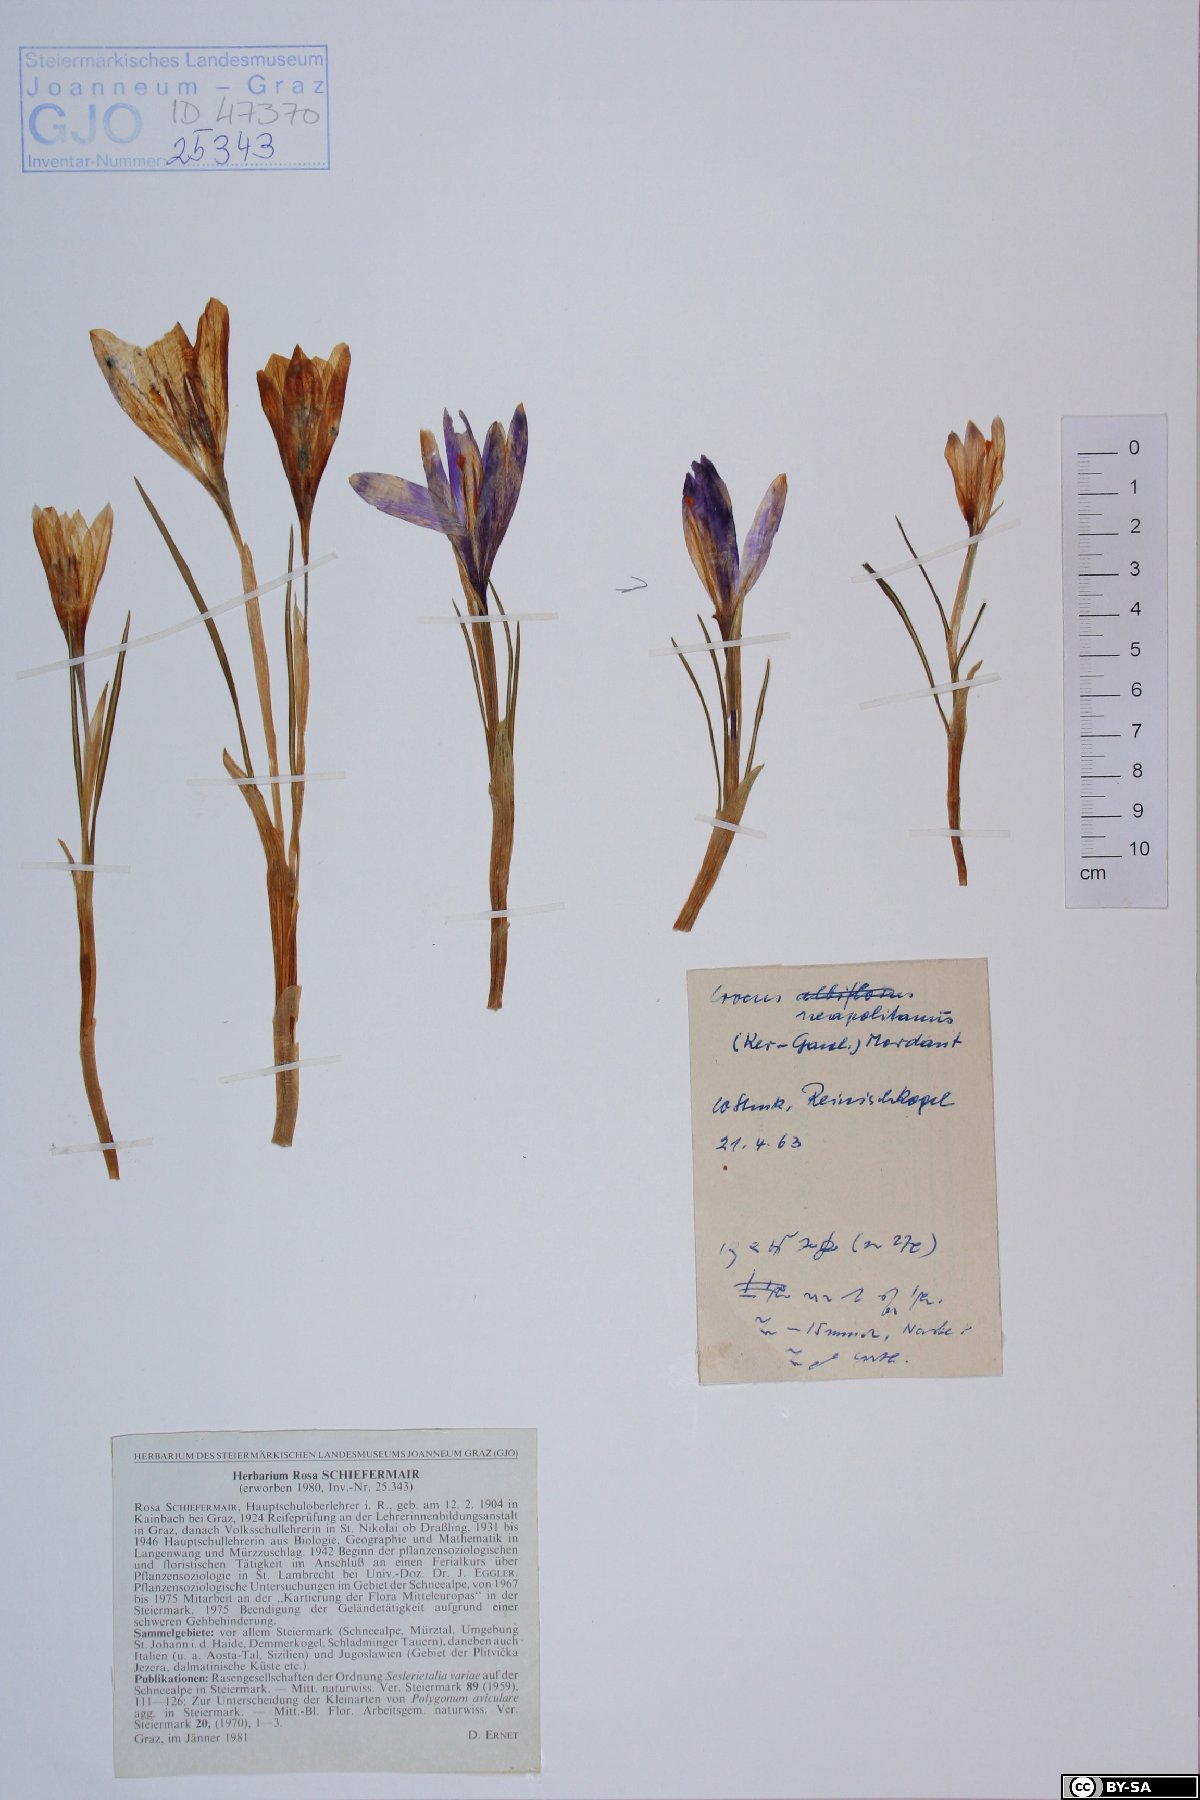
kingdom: Plantae
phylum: Tracheophyta
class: Liliopsida
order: Asparagales
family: Iridaceae
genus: Crocus
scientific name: Crocus vernus
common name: Spring crocus
